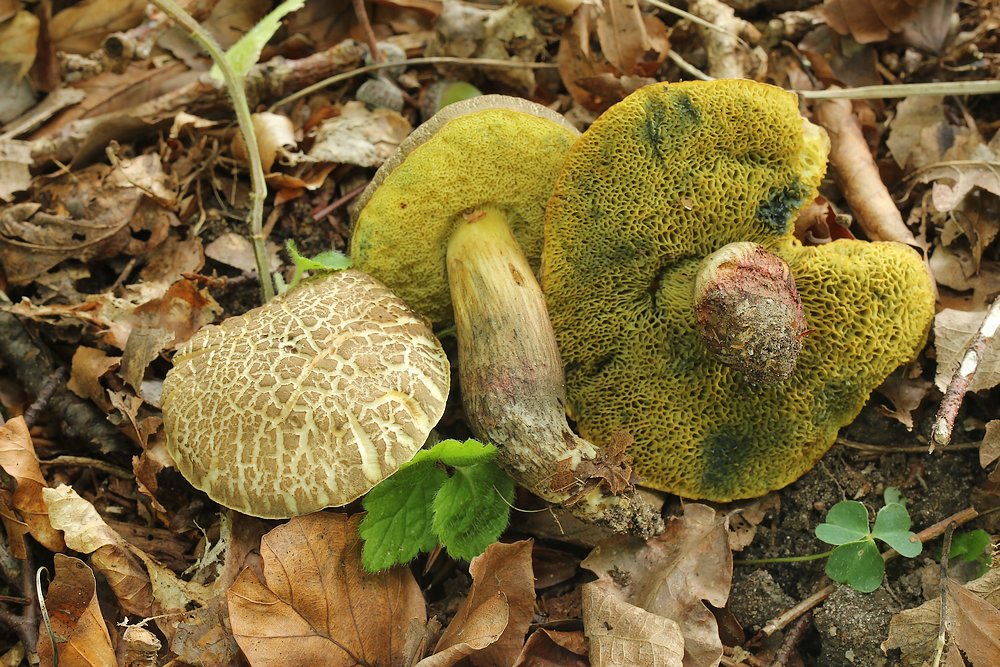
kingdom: Fungi
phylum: Basidiomycota
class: Agaricomycetes
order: Boletales
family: Boletaceae
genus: Xerocomellus
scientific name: Xerocomellus porosporus
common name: hvidsprukken rørhat
